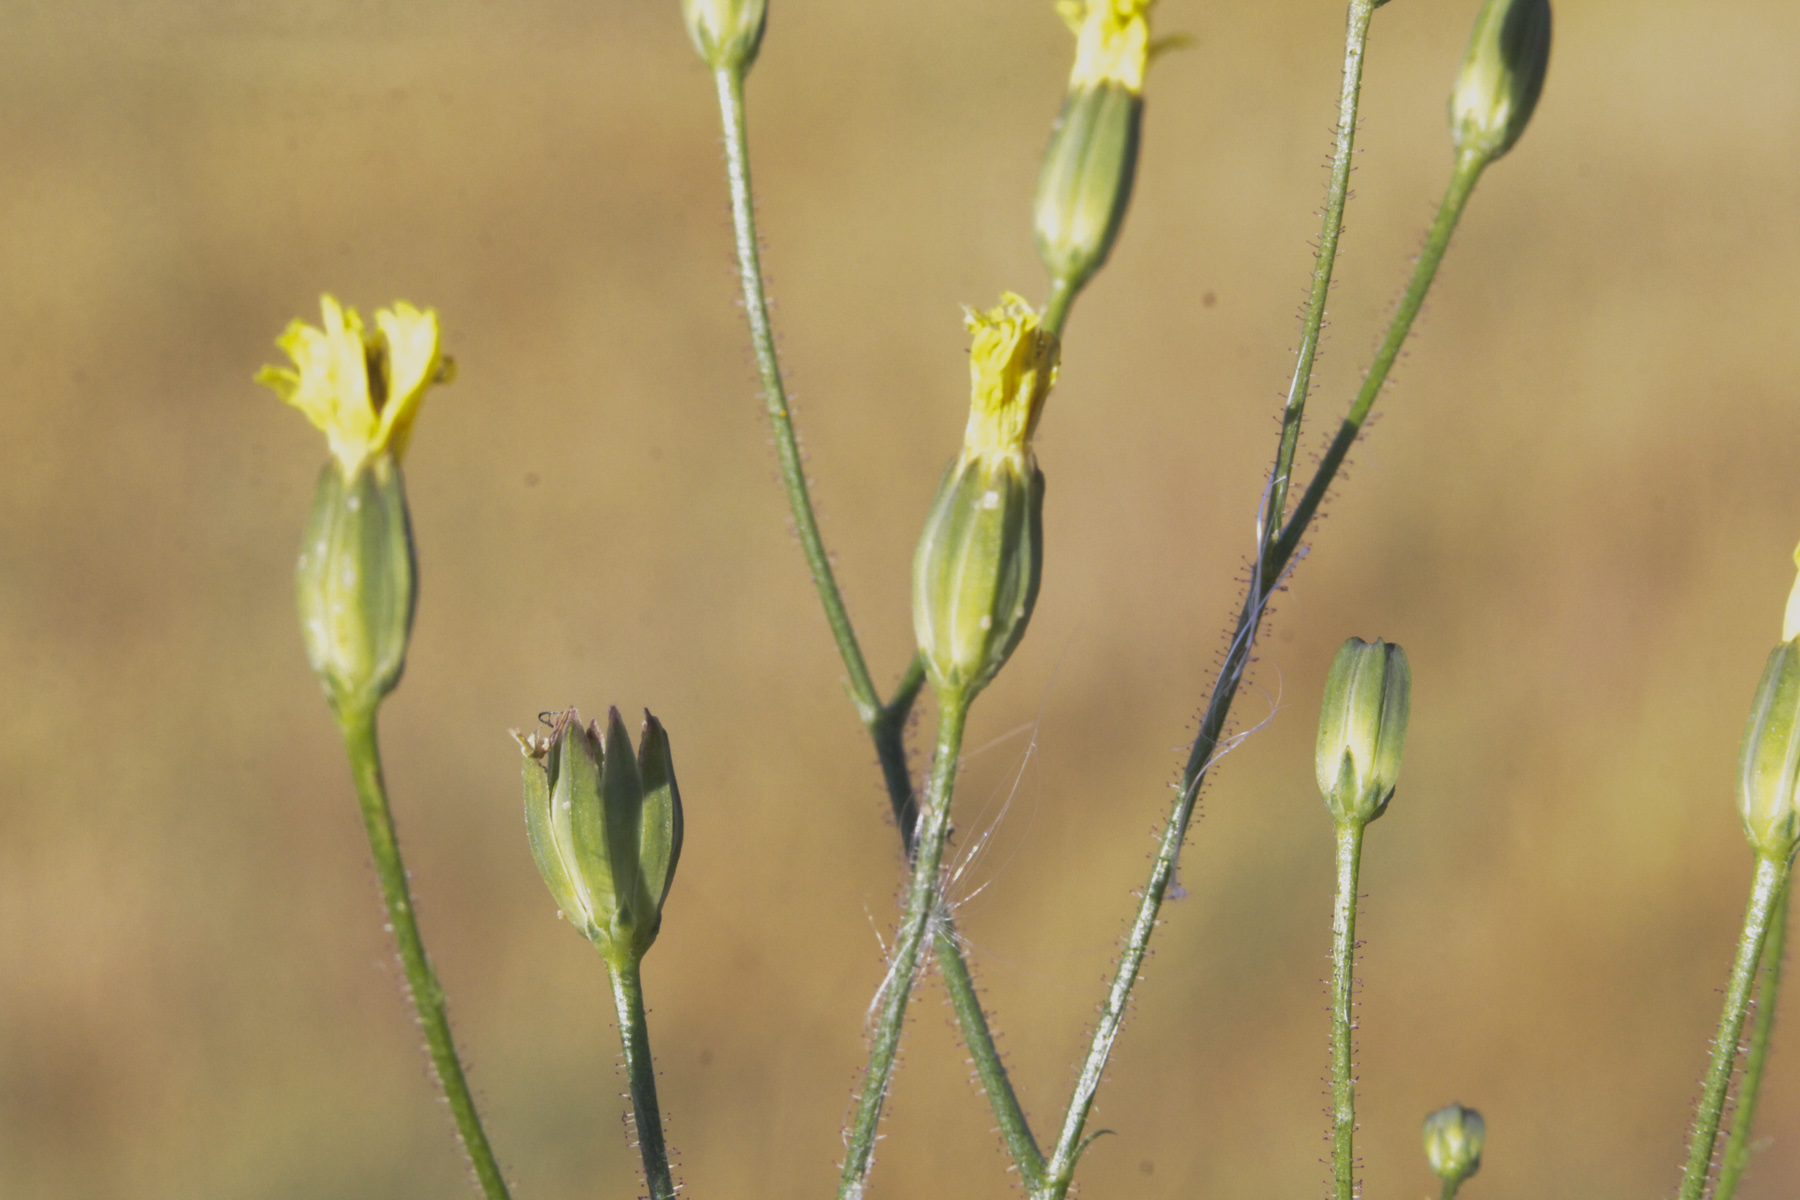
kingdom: Plantae
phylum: Tracheophyta
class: Magnoliopsida
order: Asterales
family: Asteraceae
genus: Lapsana
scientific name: Lapsana communis
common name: Nipplewort
